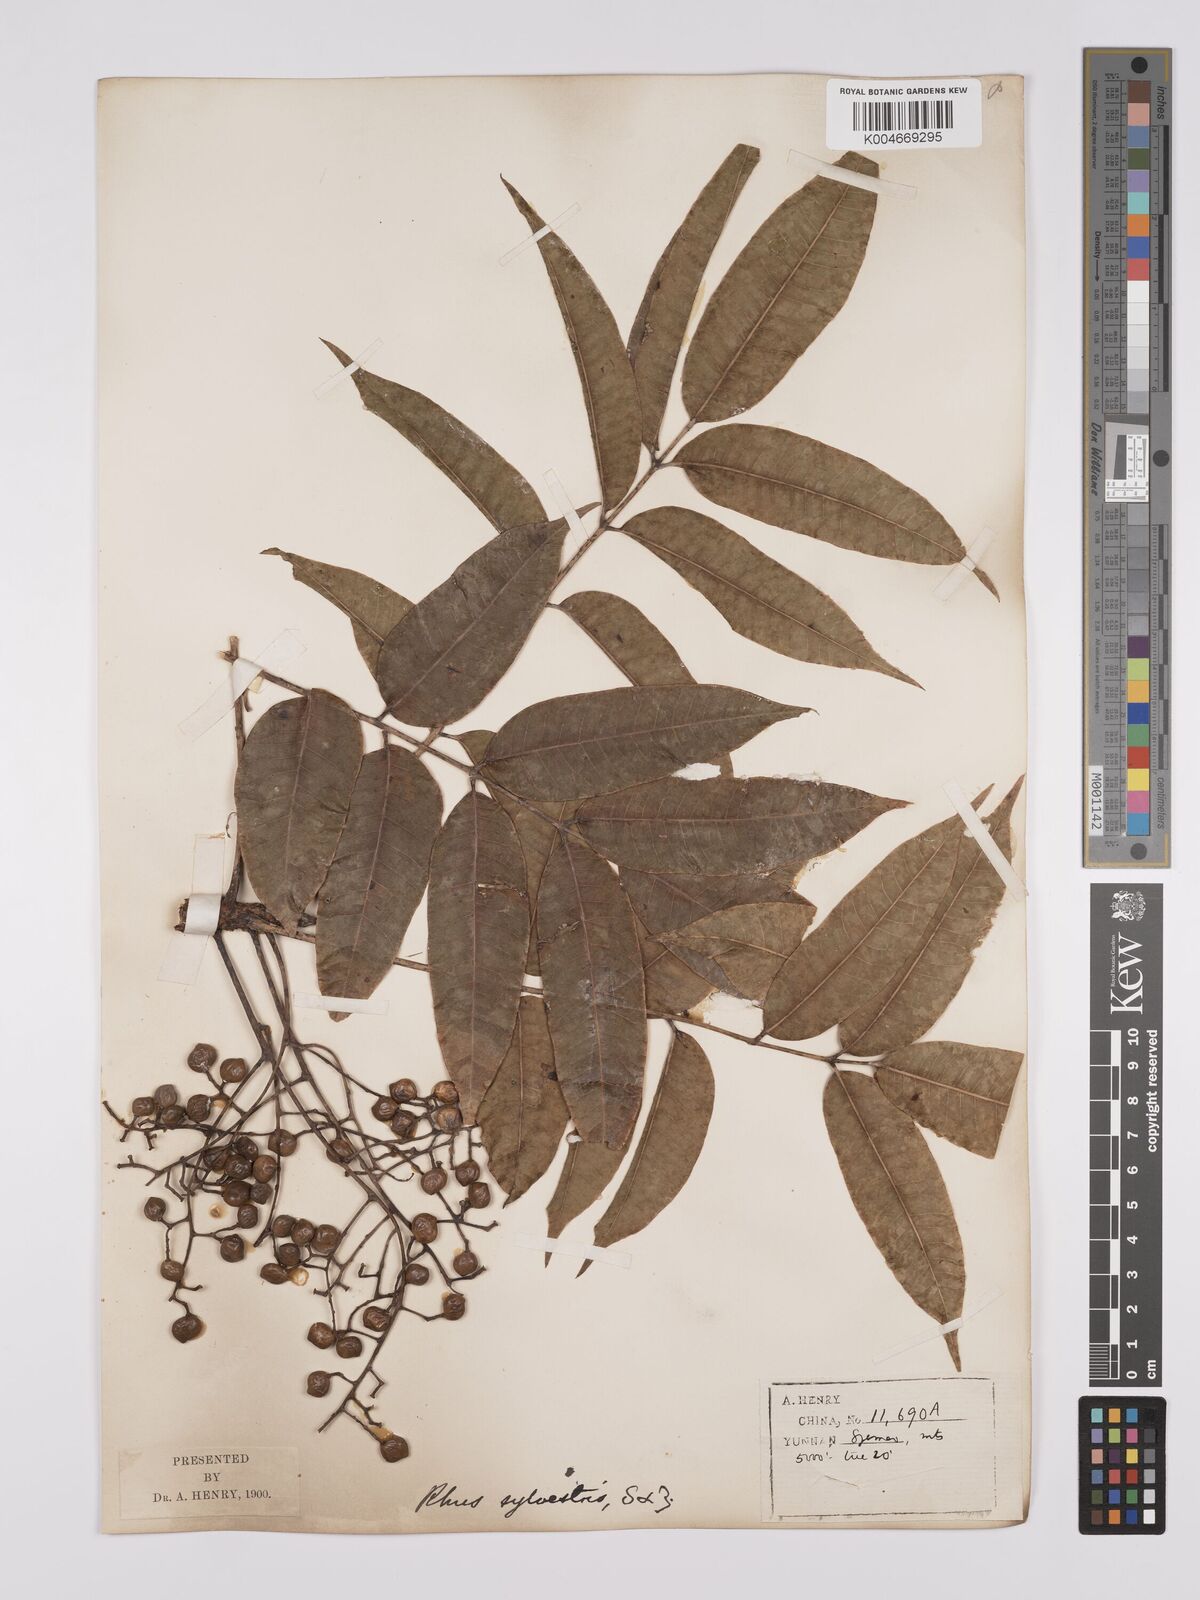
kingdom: Plantae
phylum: Tracheophyta
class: Magnoliopsida
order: Sapindales
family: Anacardiaceae
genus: Toxicodendron
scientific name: Toxicodendron succedaneum
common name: Wax tree
